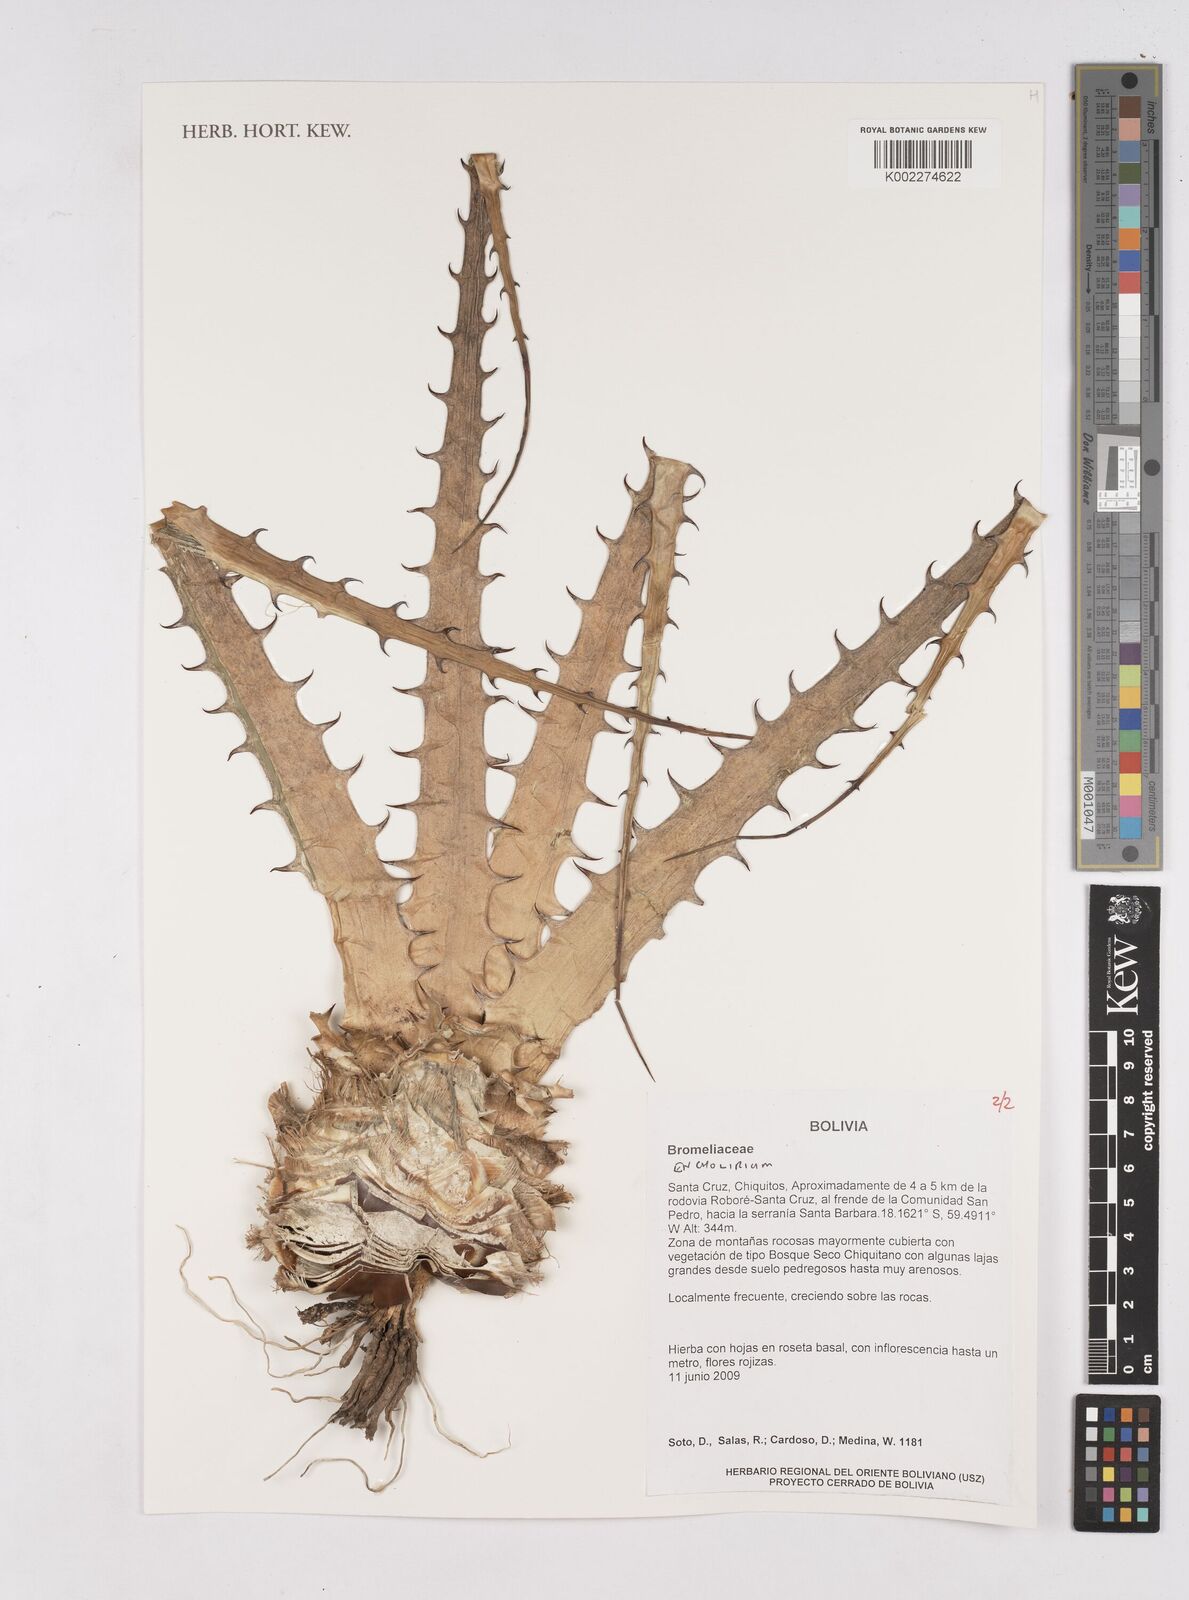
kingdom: Plantae
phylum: Tracheophyta
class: Liliopsida
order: Poales
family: Bromeliaceae
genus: Encholirium
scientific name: Encholirium
